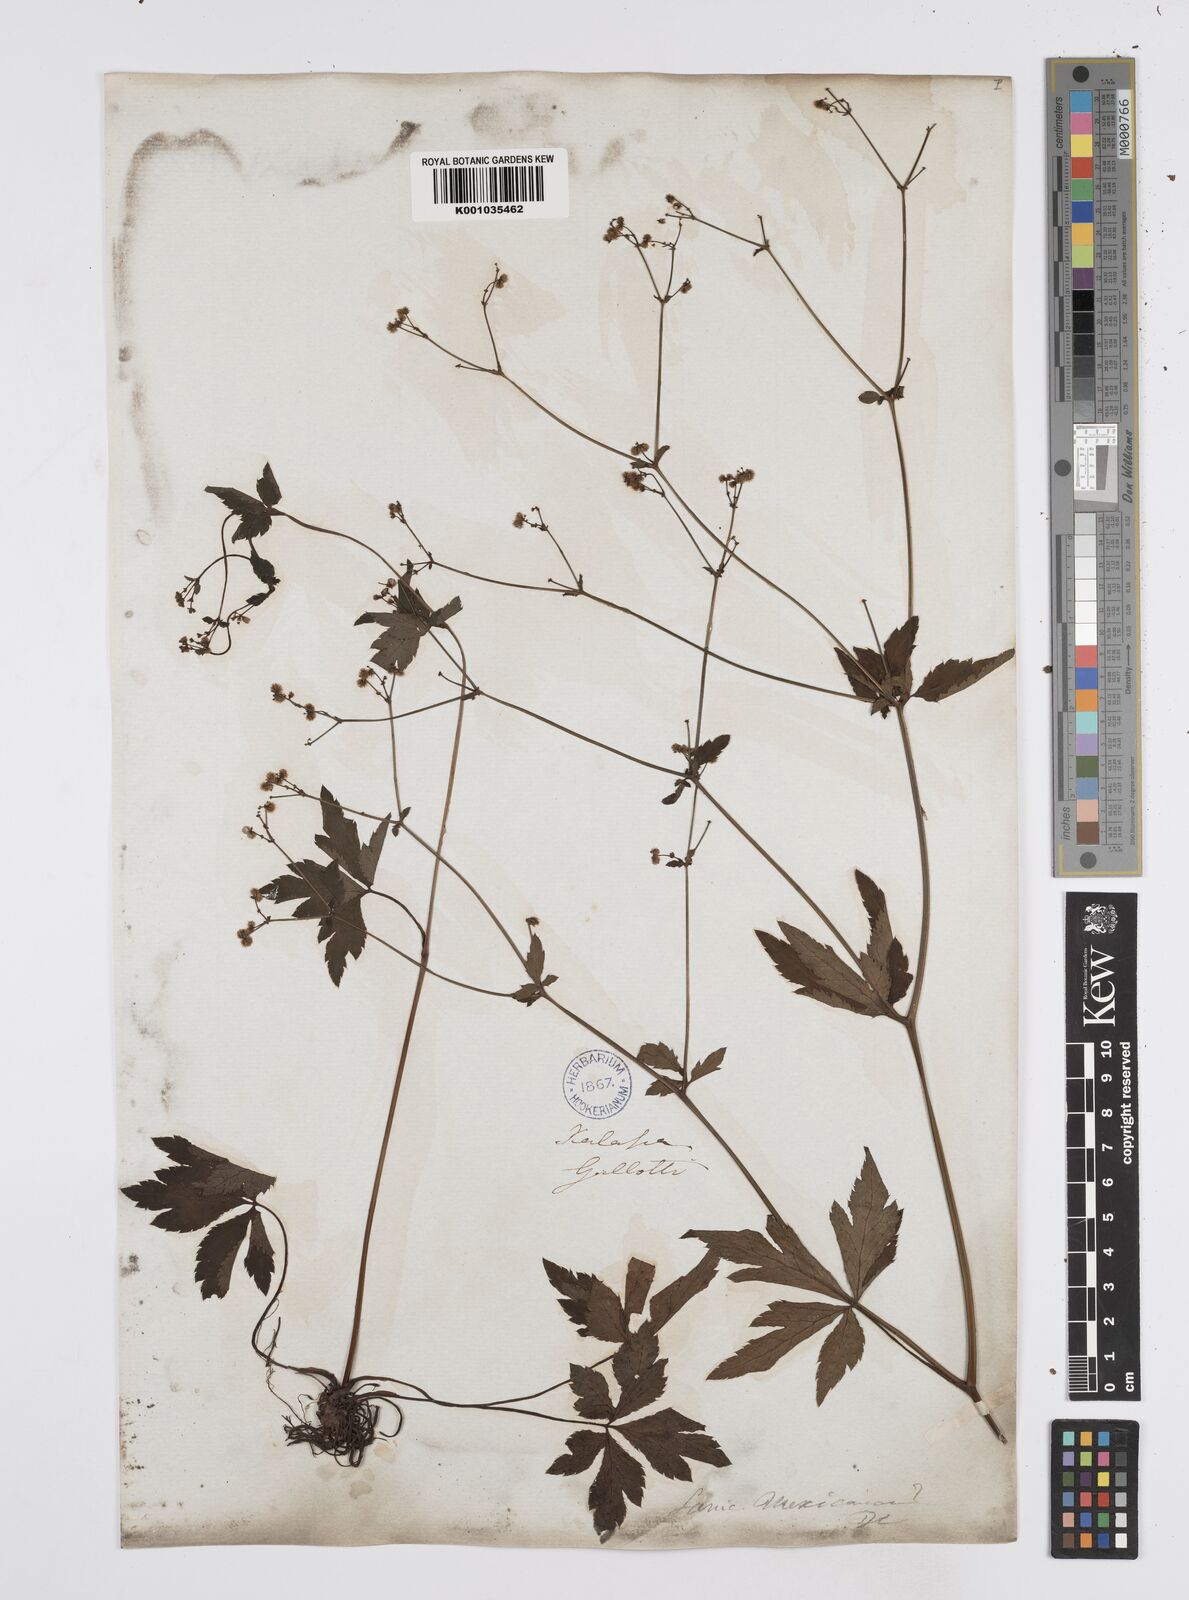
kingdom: Plantae
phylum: Tracheophyta
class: Magnoliopsida
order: Apiales
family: Apiaceae
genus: Sanicula
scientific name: Sanicula liberta
